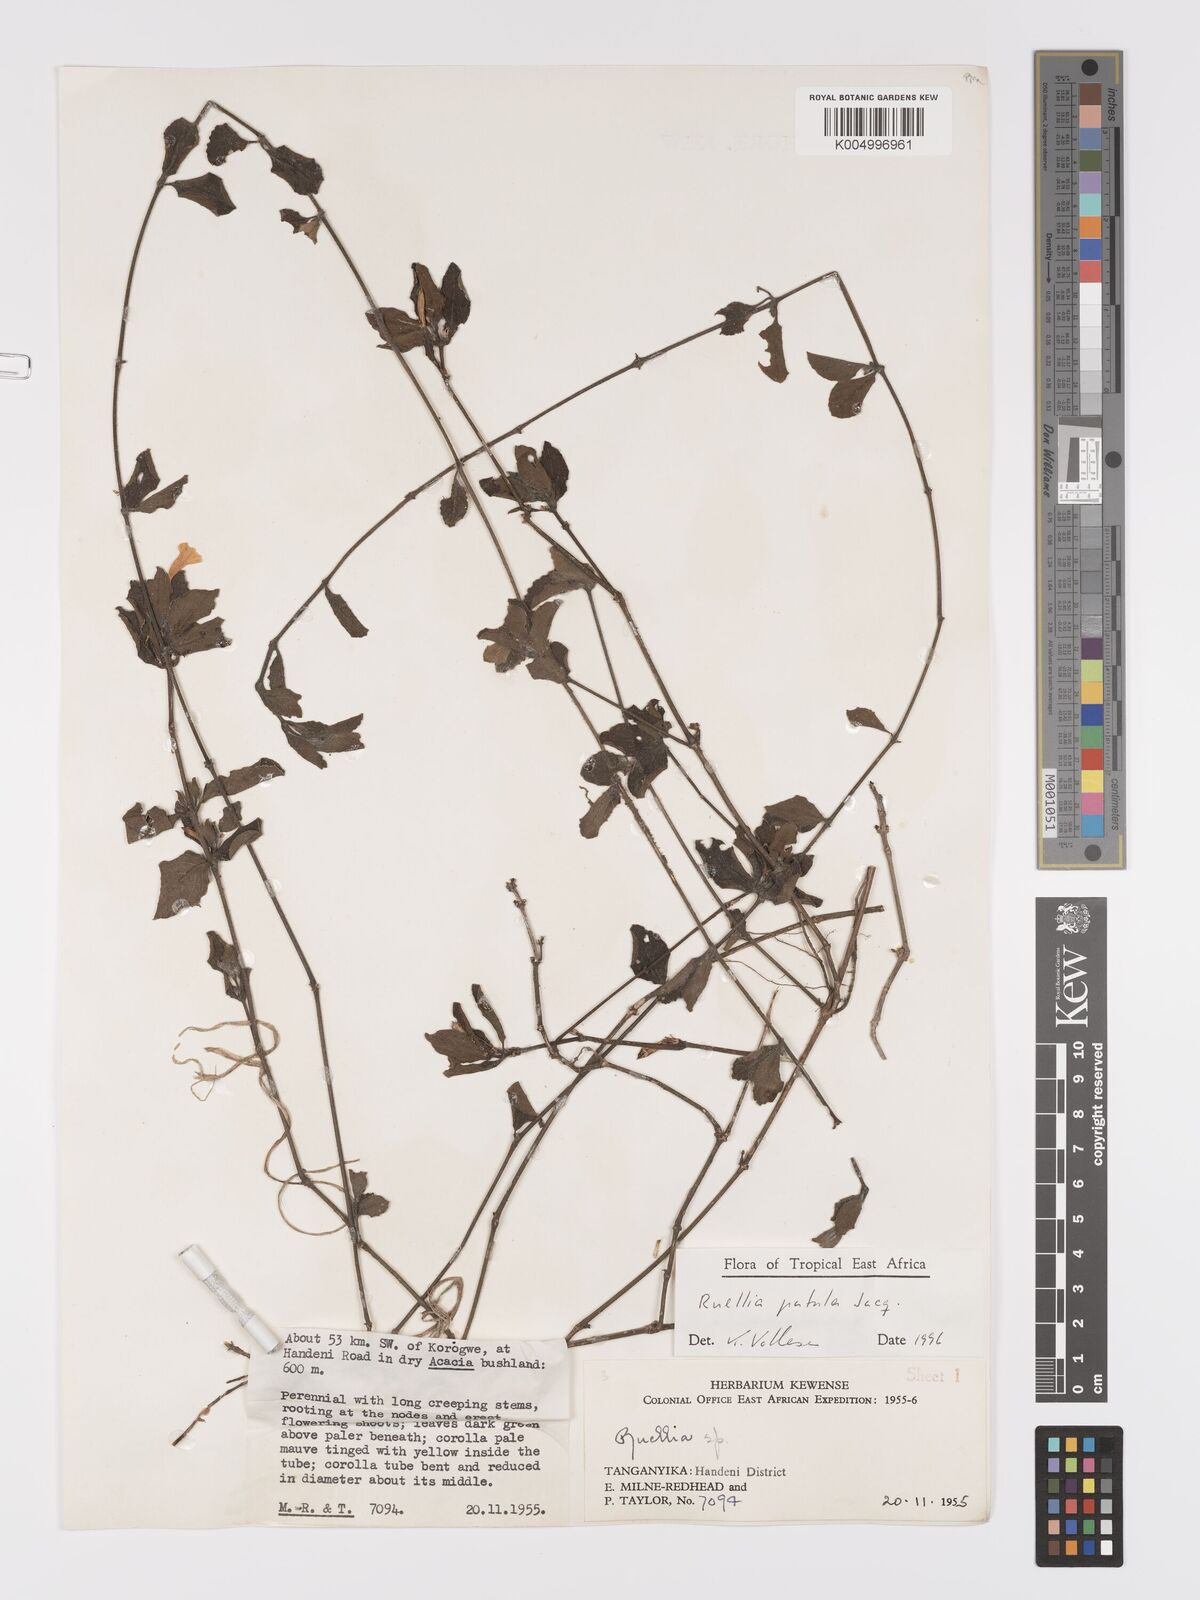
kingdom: Plantae
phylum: Tracheophyta
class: Magnoliopsida
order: Lamiales
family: Acanthaceae
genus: Ruellia
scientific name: Ruellia patula
